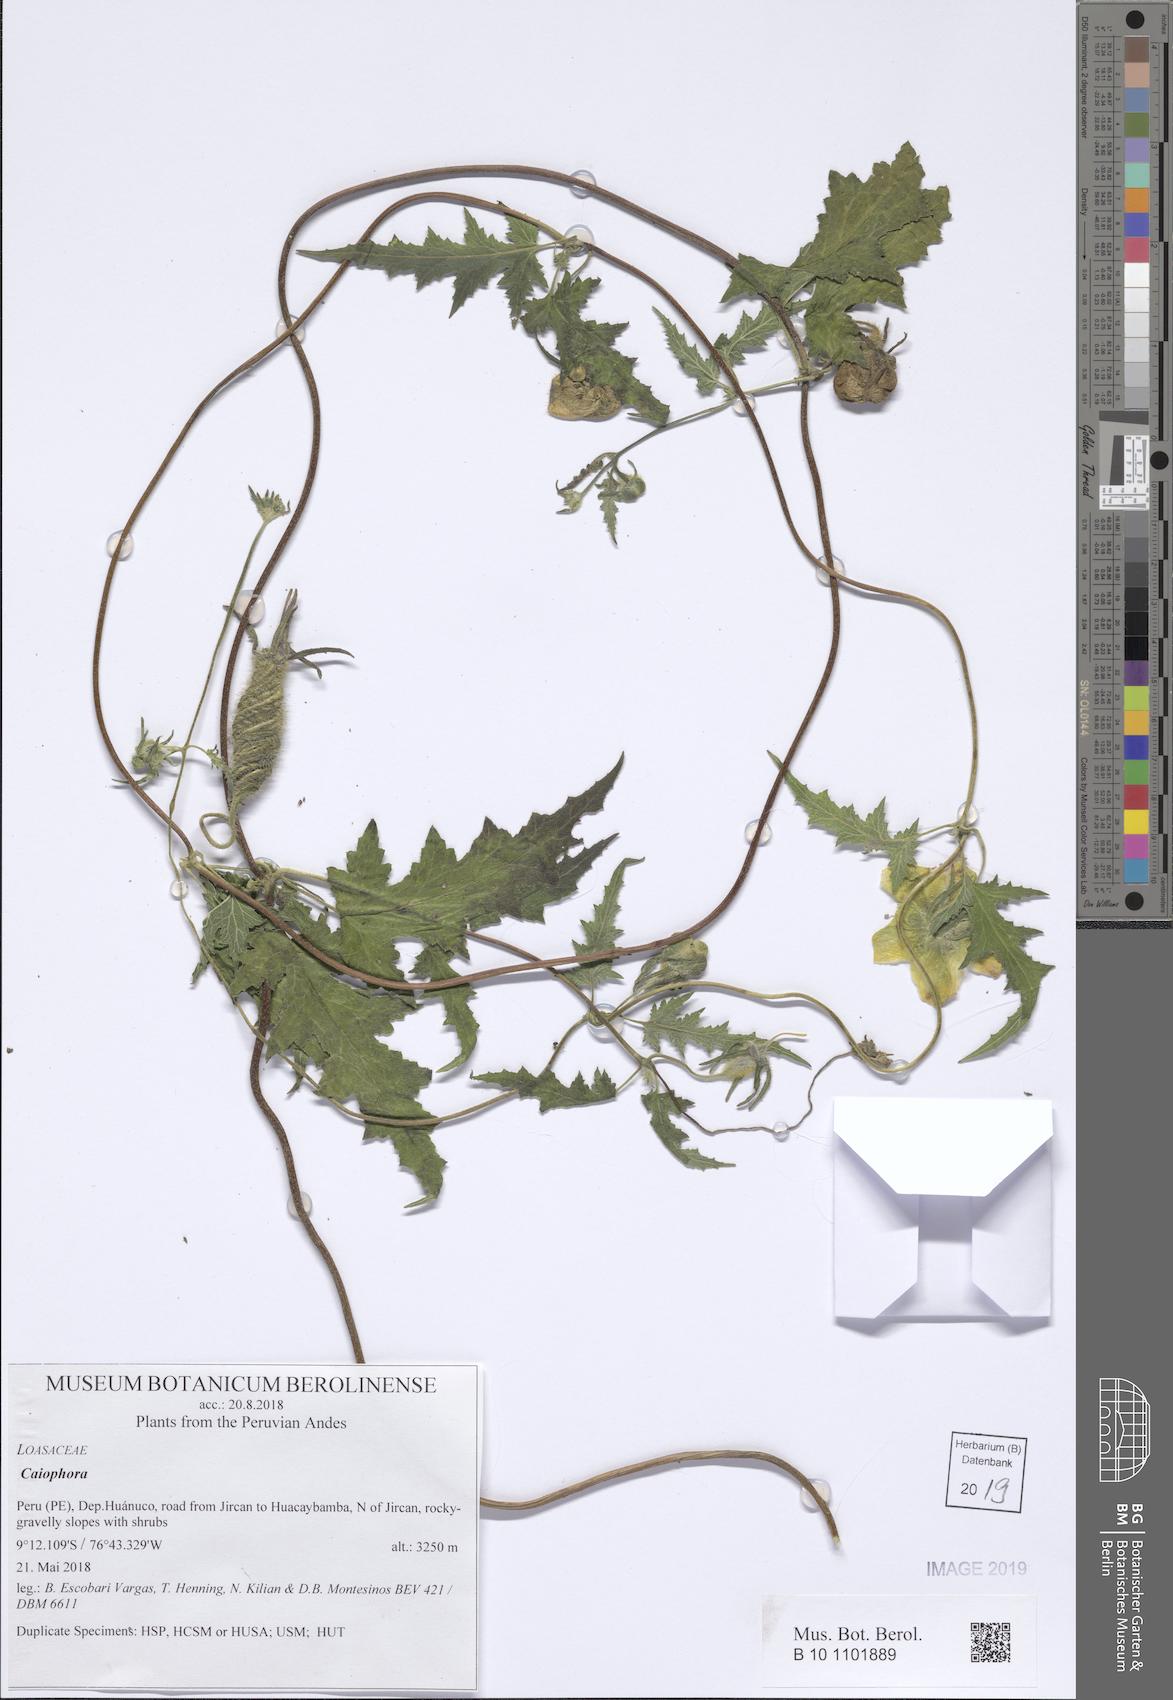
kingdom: Plantae
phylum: Tracheophyta
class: Magnoliopsida
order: Cornales
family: Loasaceae
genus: Caiophora
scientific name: Caiophora cirsiifolia
